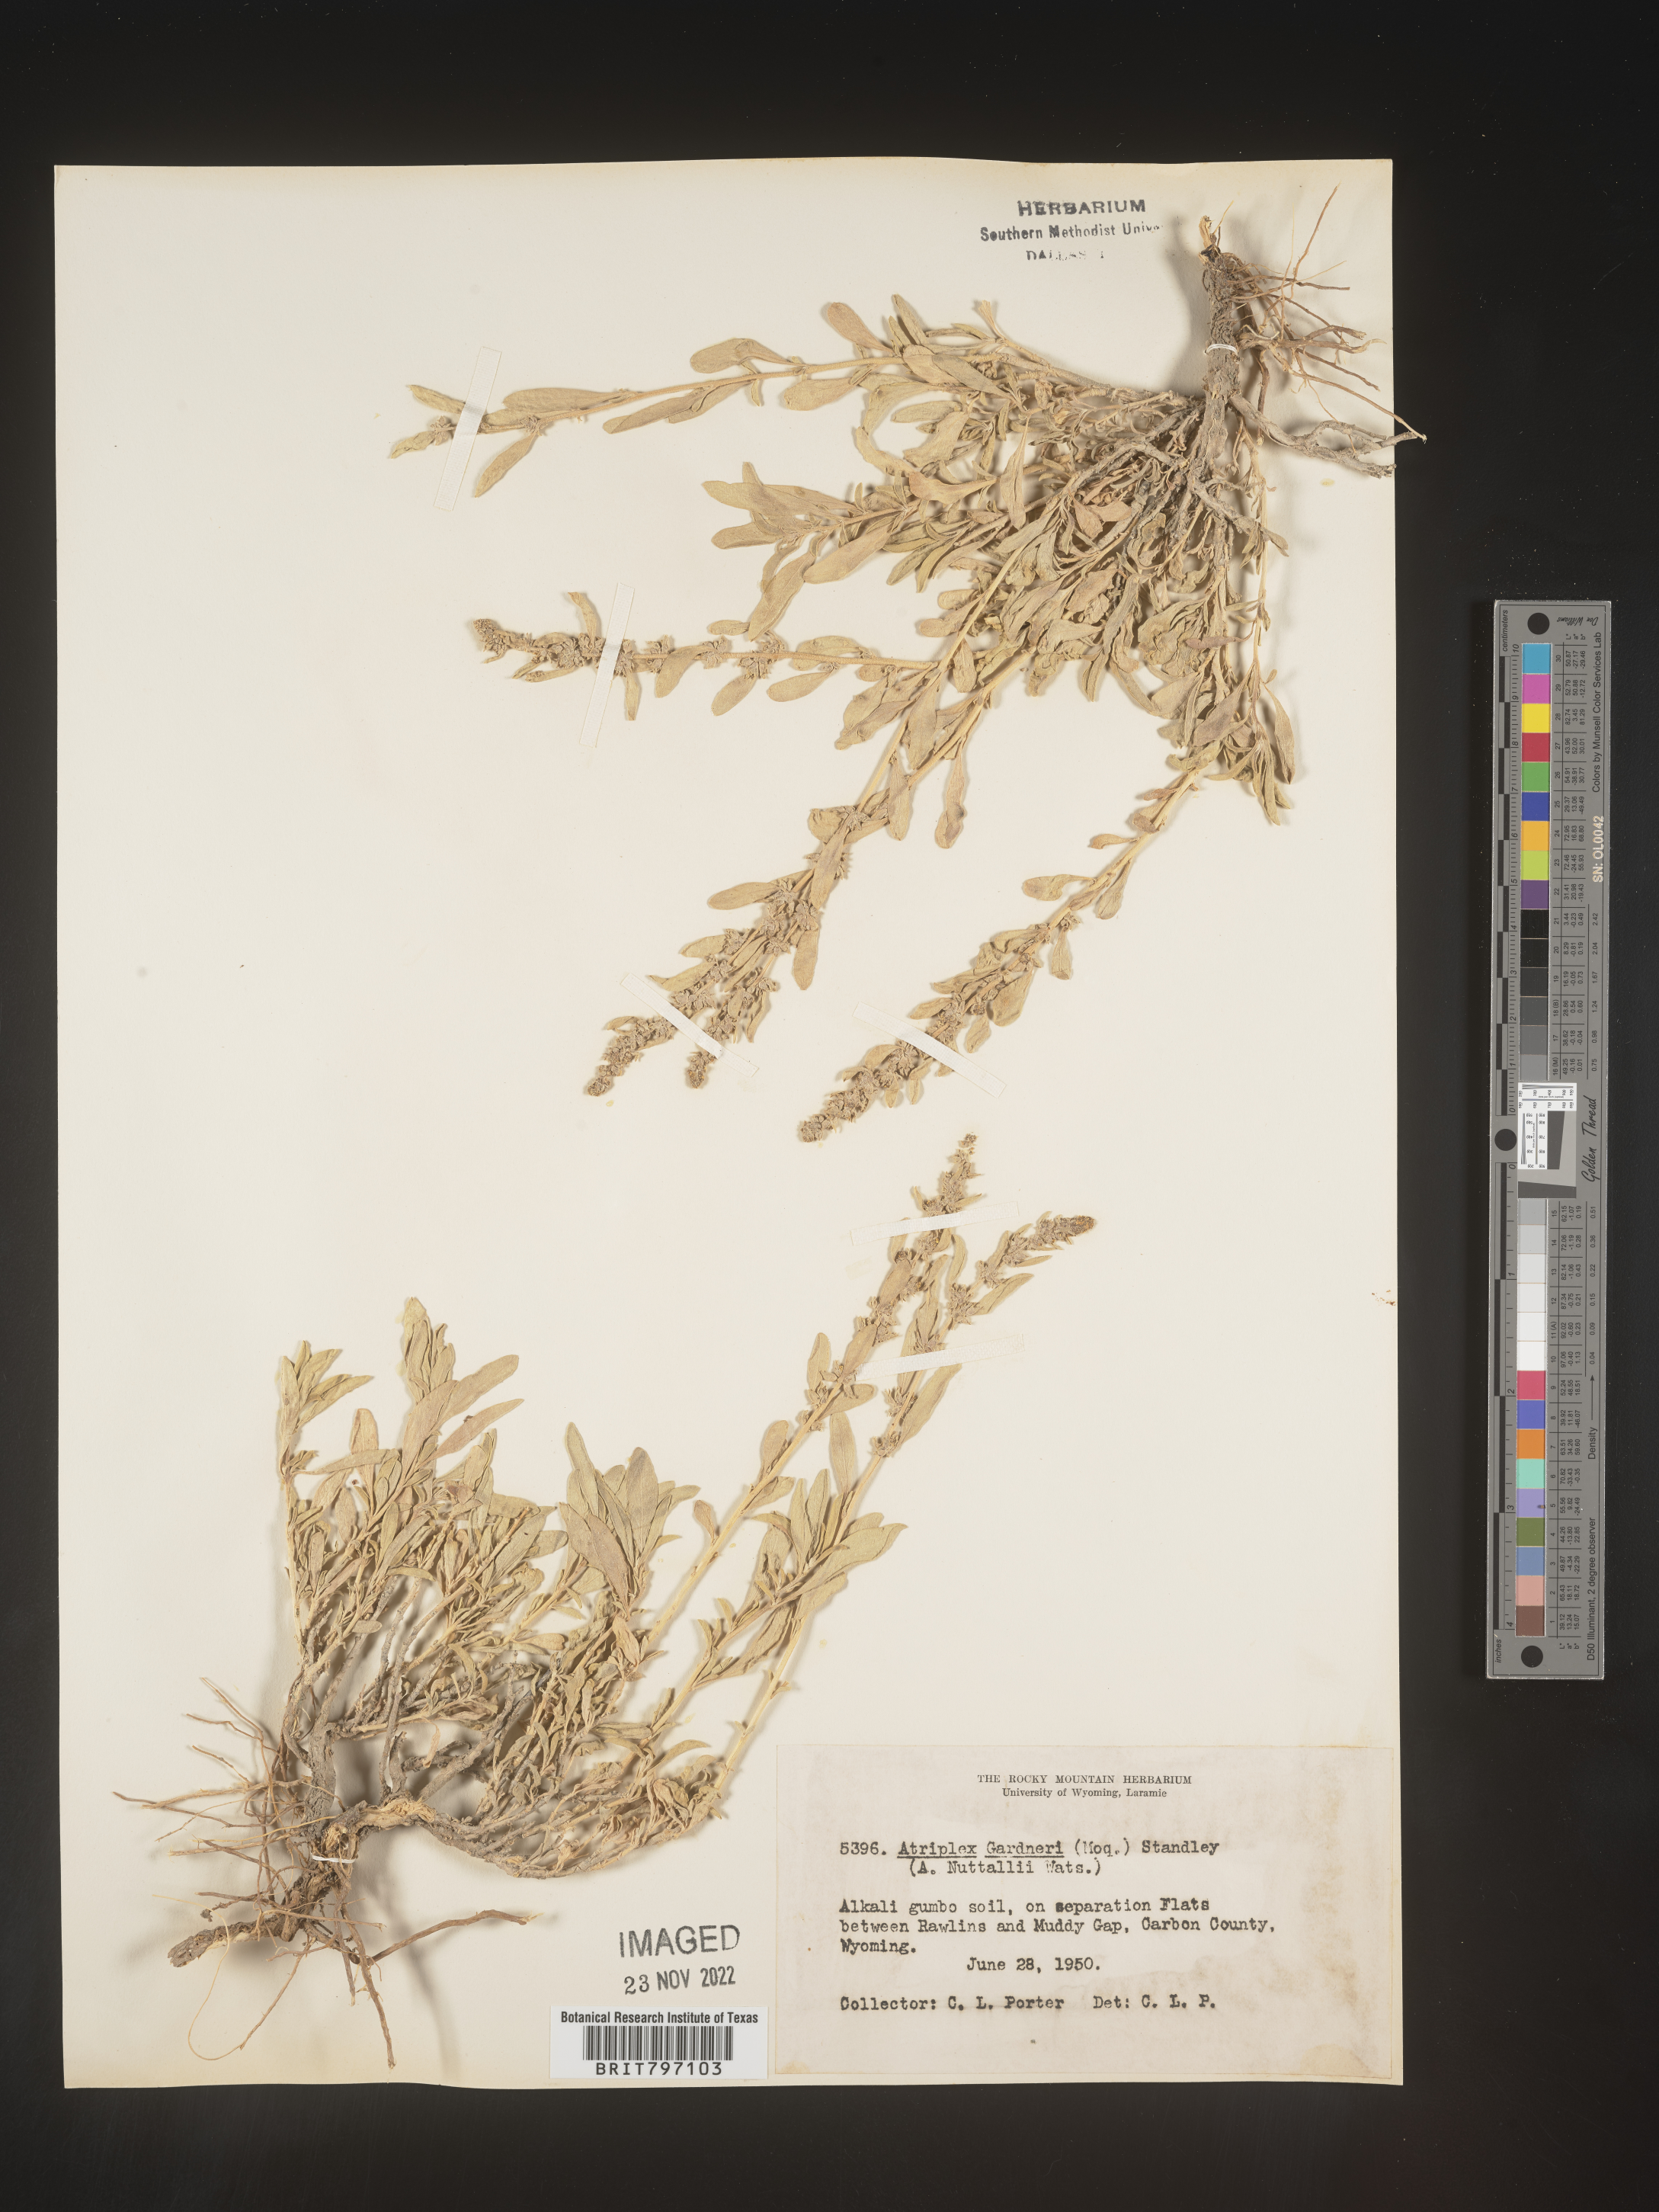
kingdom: Plantae
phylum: Tracheophyta
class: Magnoliopsida
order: Caryophyllales
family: Amaranthaceae
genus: Atriplex
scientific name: Atriplex
